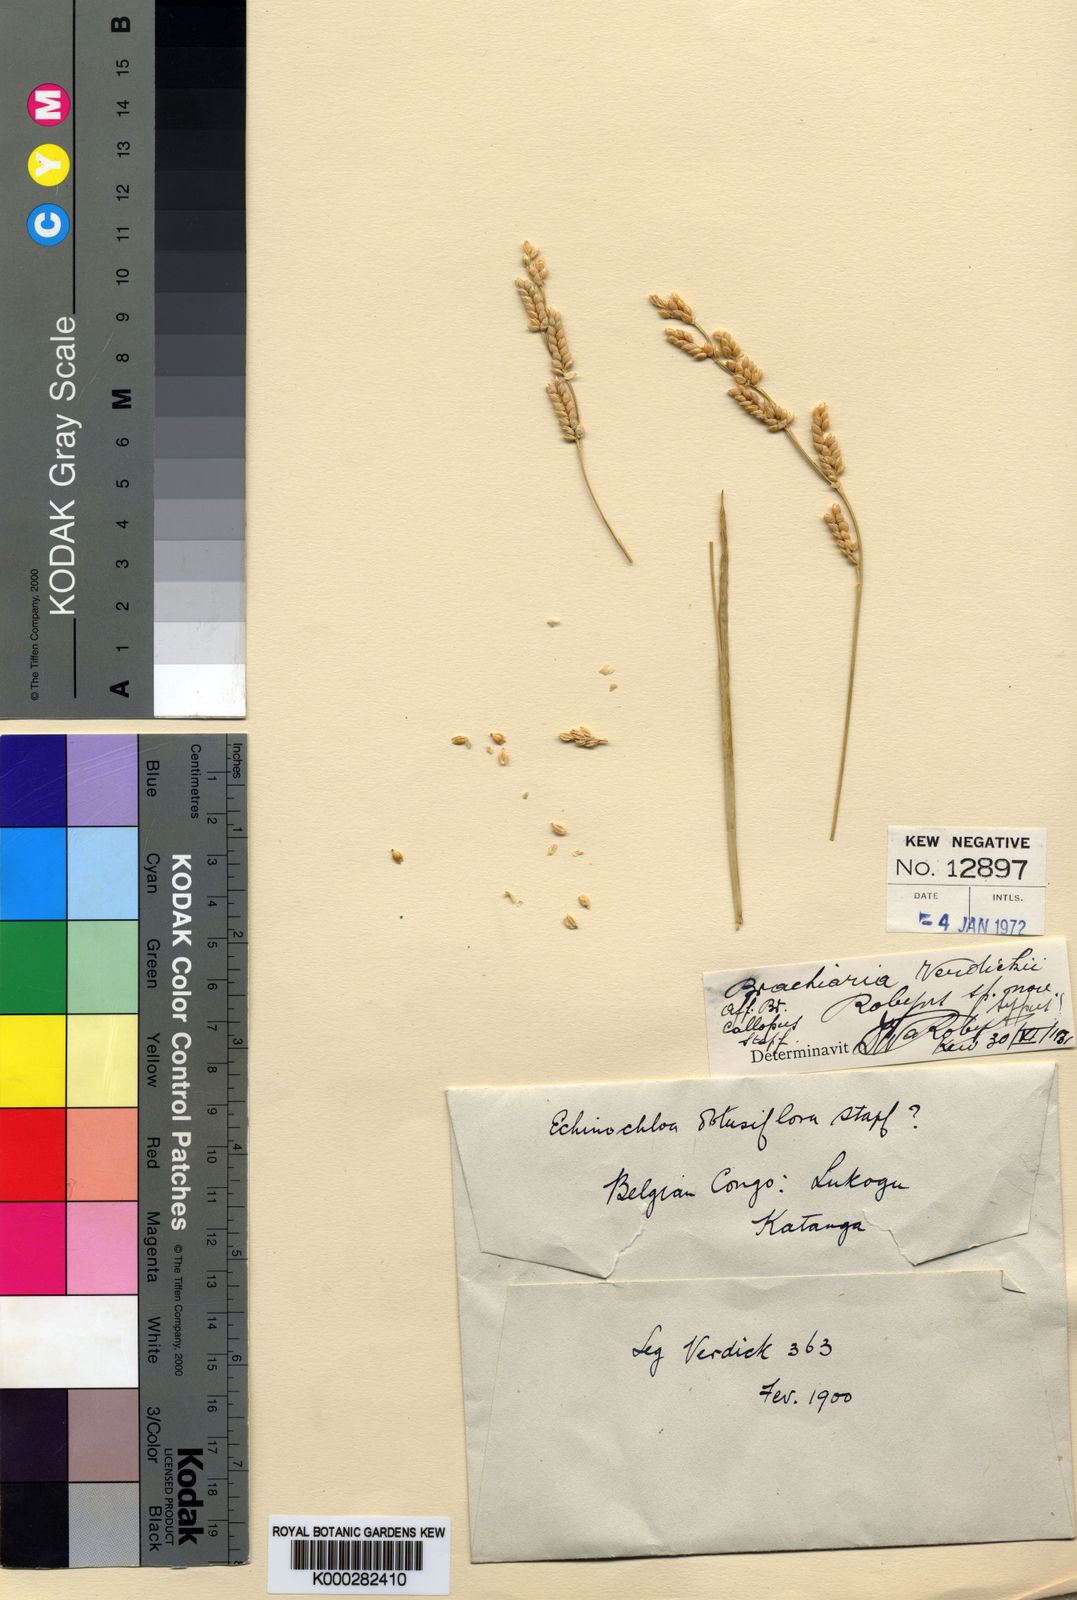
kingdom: Plantae
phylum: Tracheophyta
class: Liliopsida
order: Poales
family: Poaceae
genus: Echinochloa
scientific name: Echinochloa callopus
